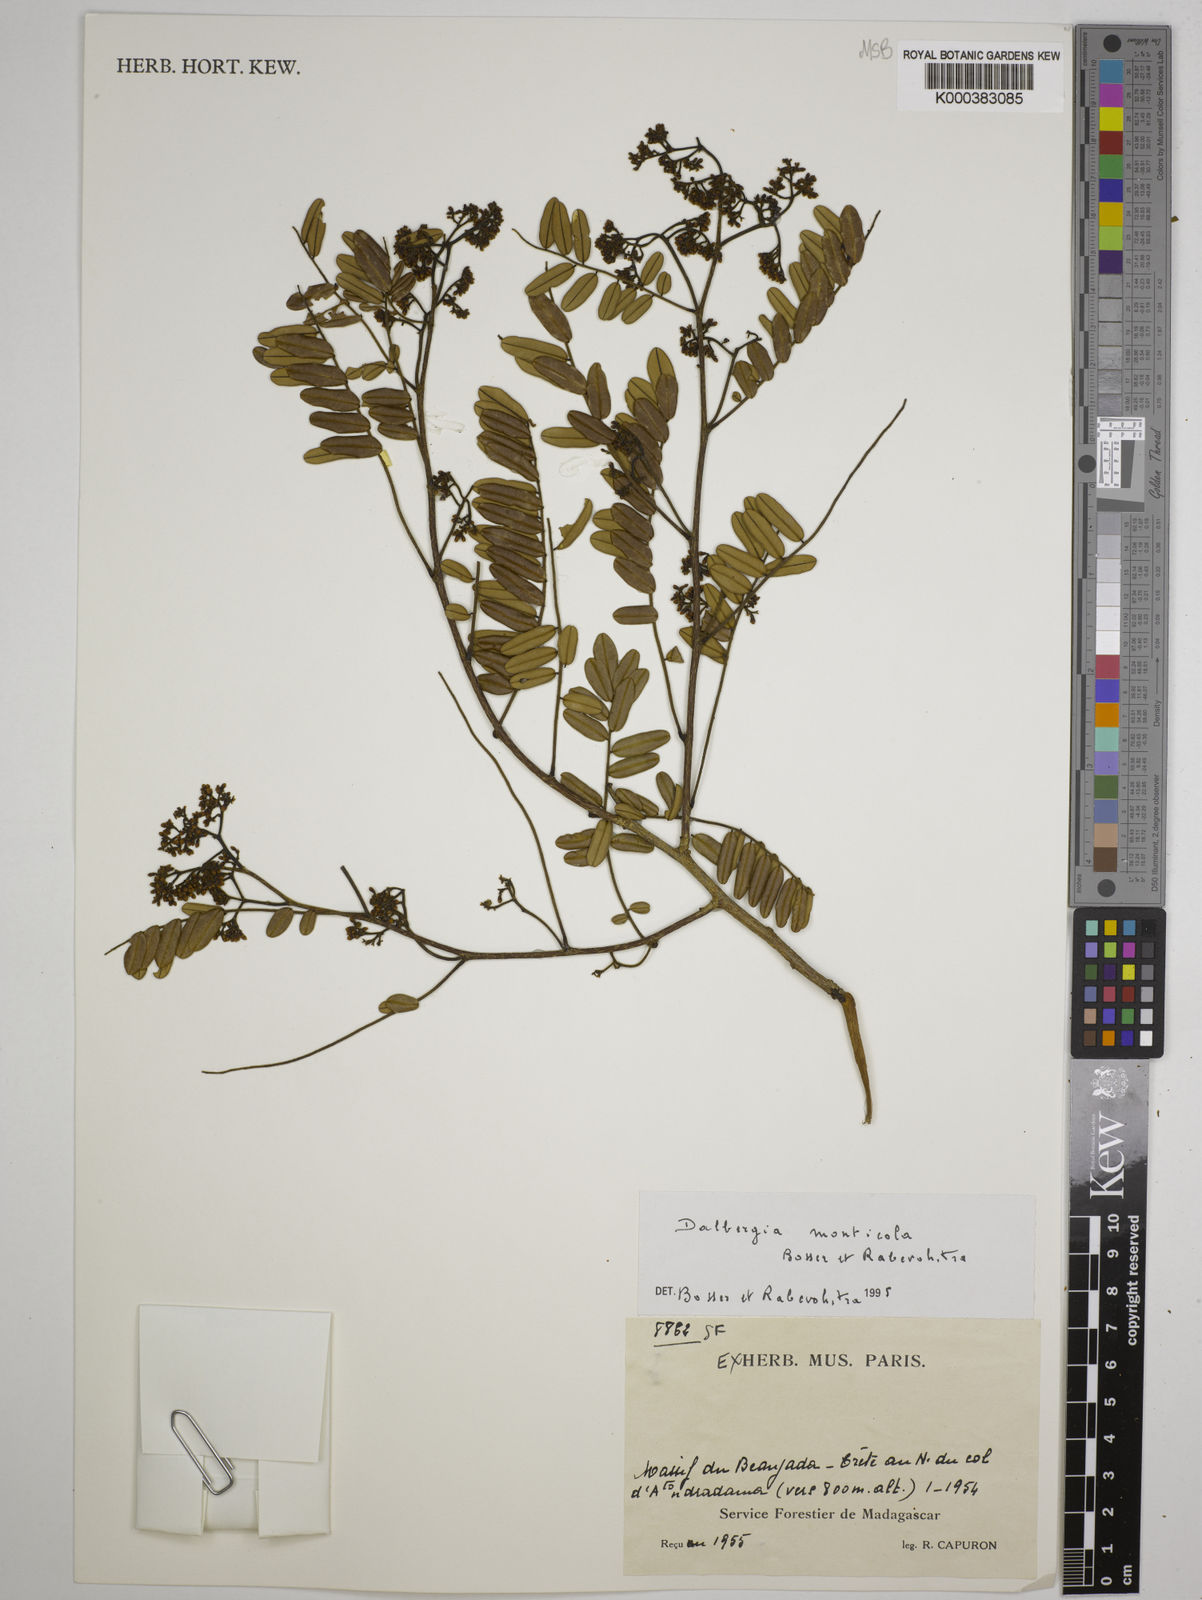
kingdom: Plantae
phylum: Tracheophyta
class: Magnoliopsida
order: Fabales
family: Fabaceae
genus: Dalbergia
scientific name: Dalbergia monticola
